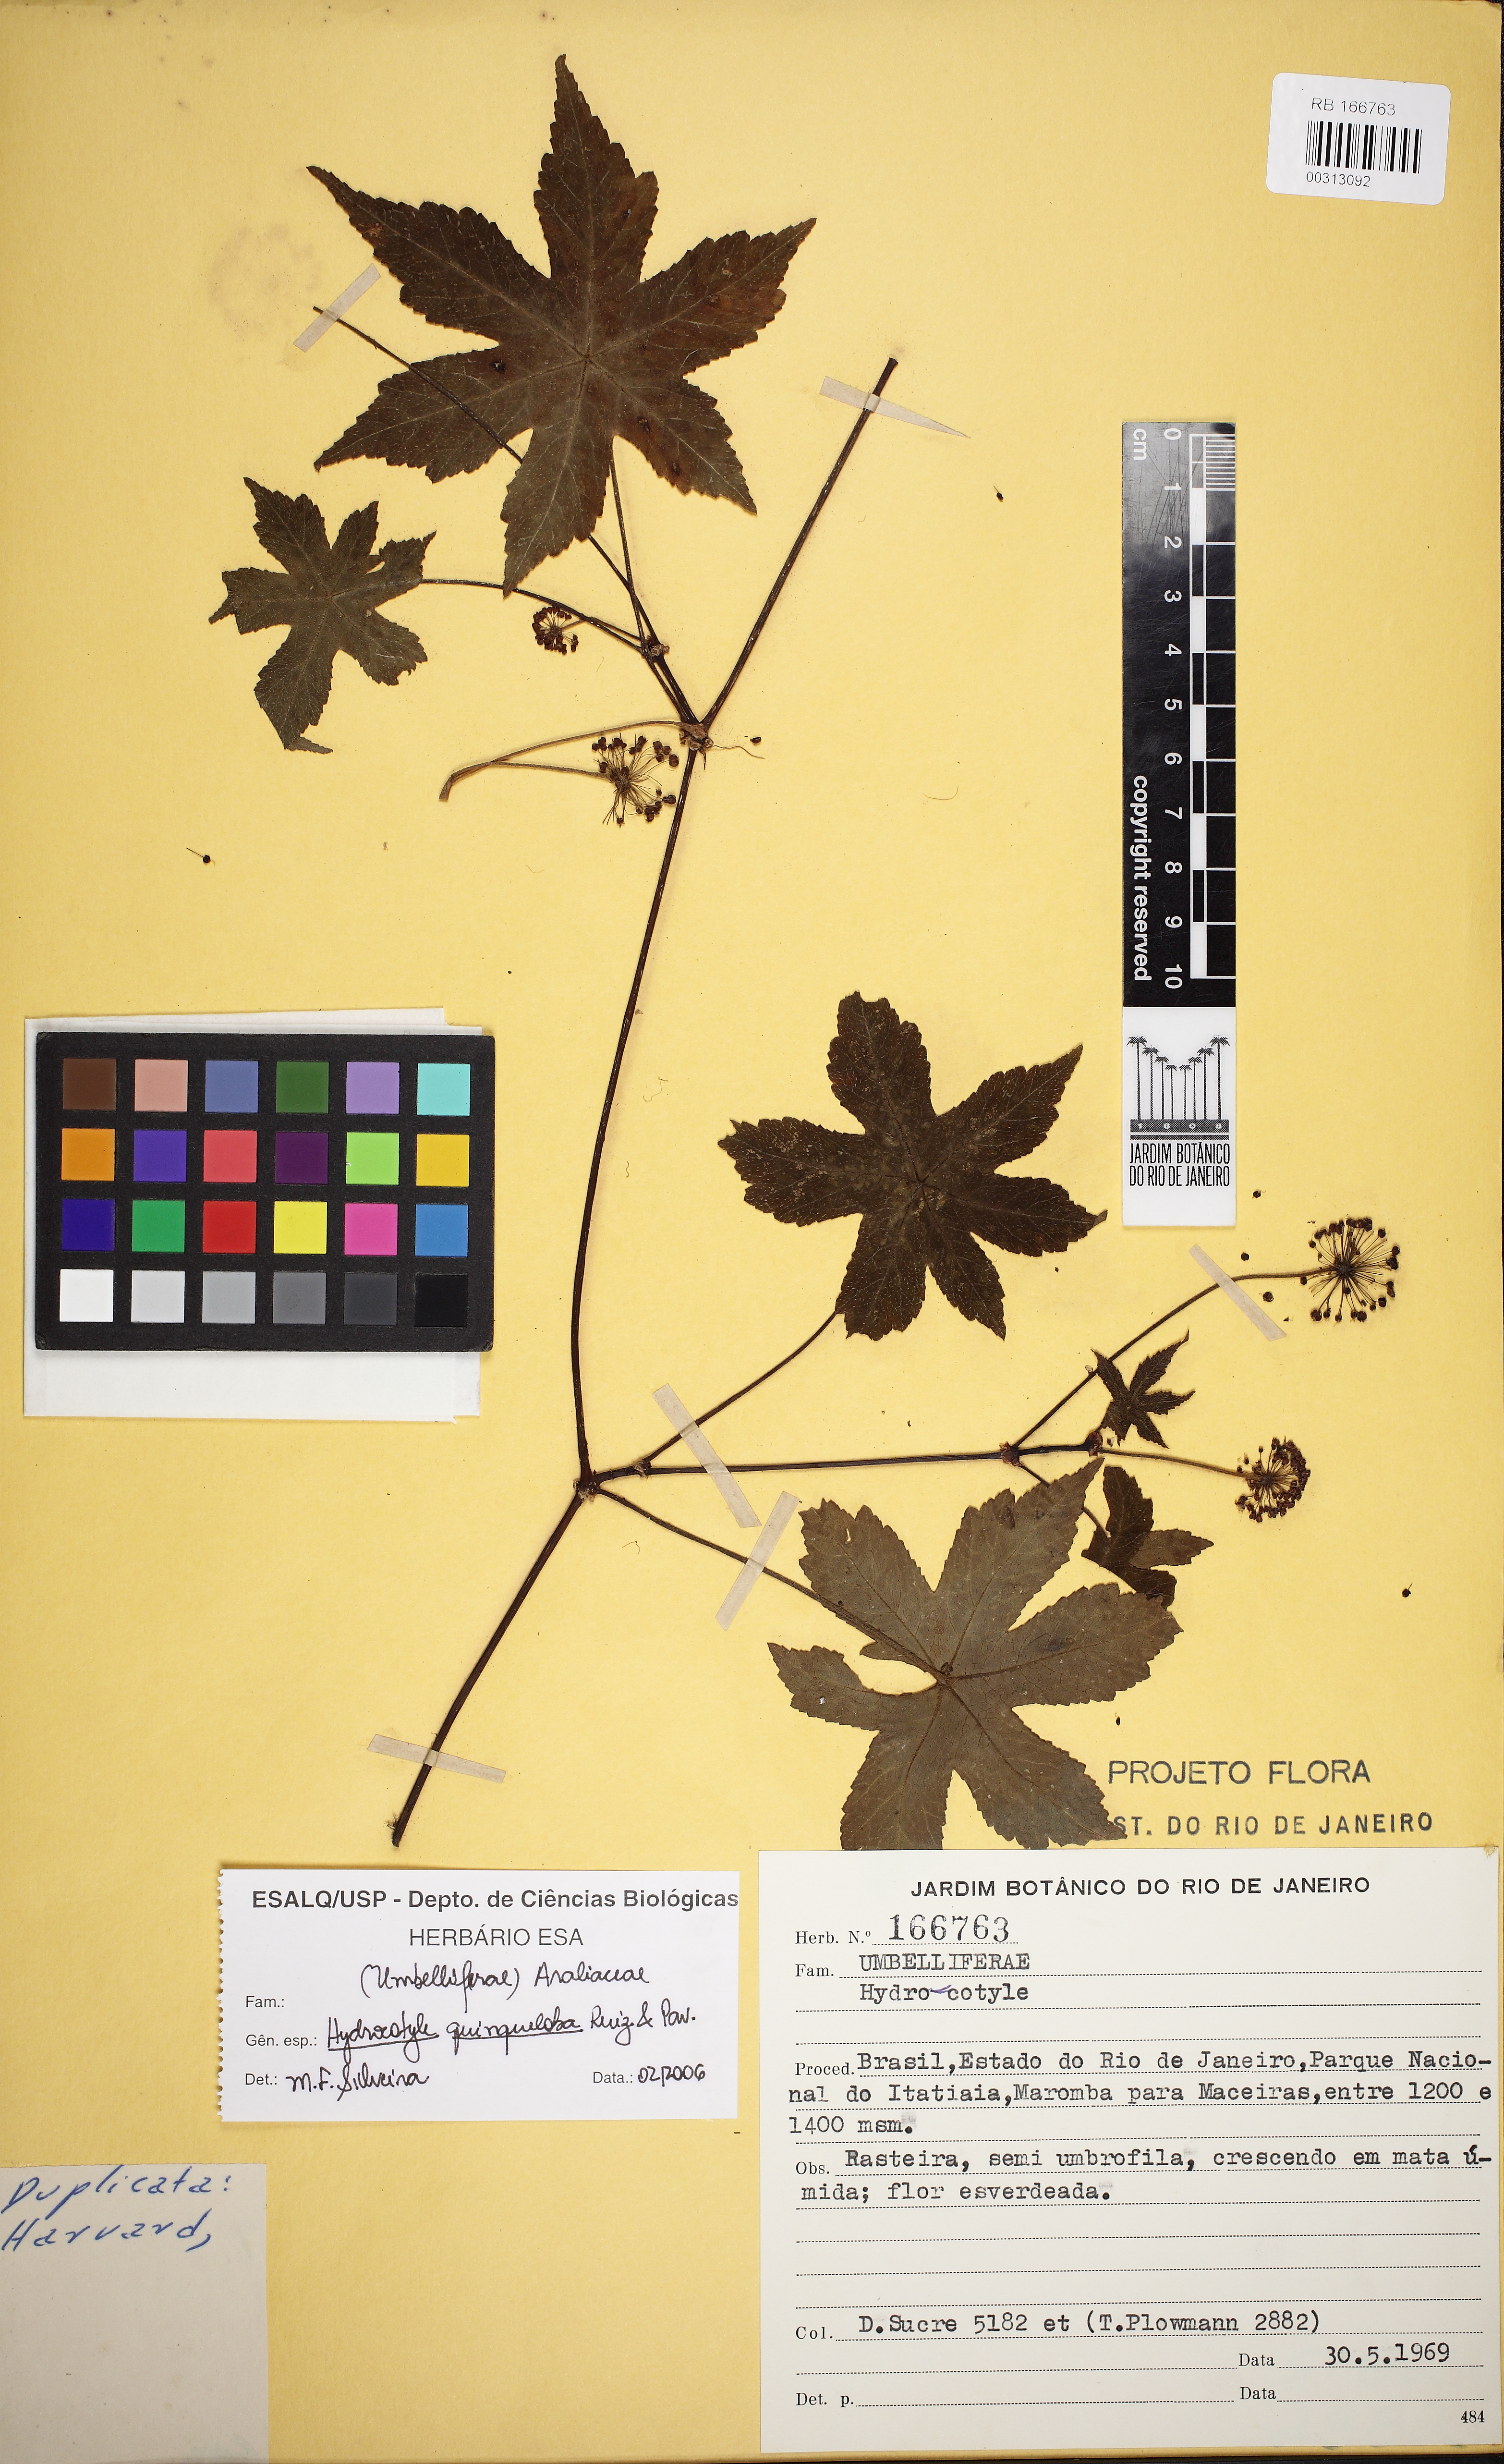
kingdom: Plantae
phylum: Tracheophyta
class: Magnoliopsida
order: Apiales
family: Araliaceae
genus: Hydrocotyle
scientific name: Hydrocotyle quinqueloba
